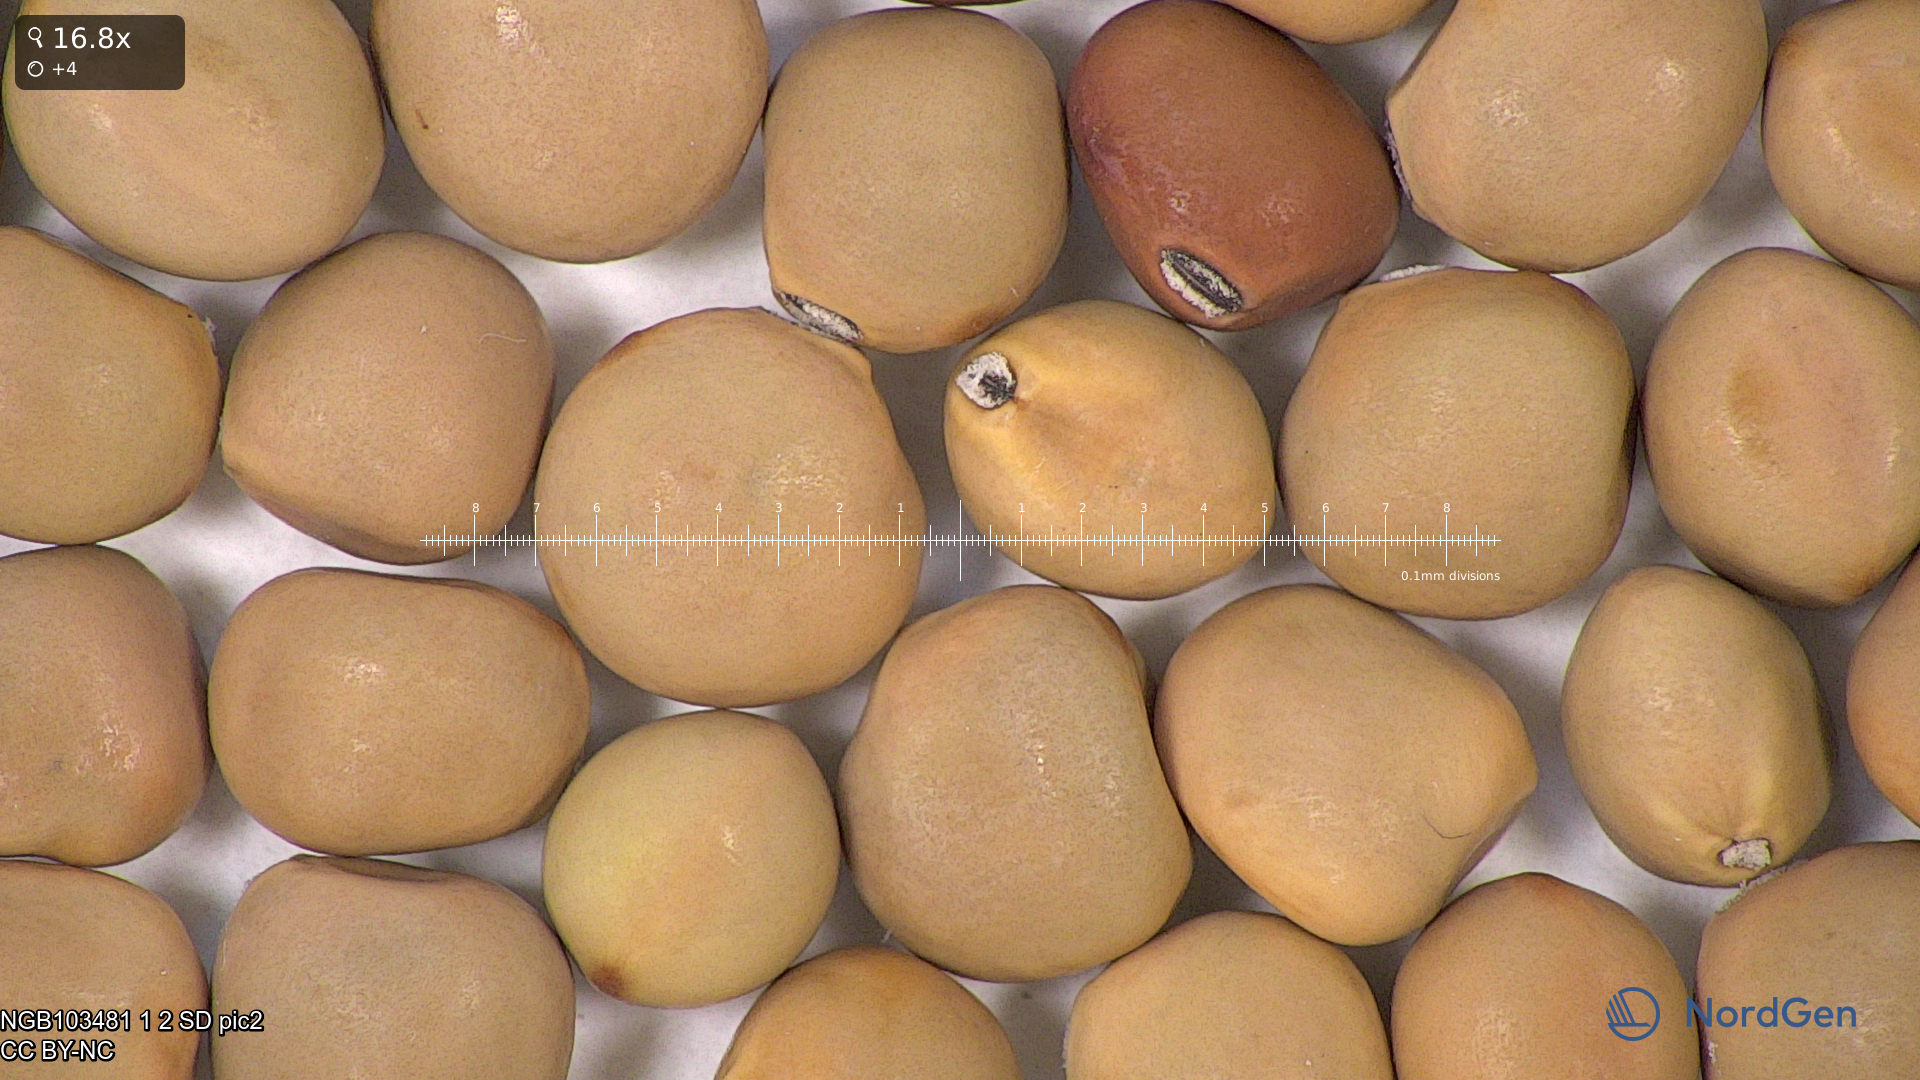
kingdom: Plantae
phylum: Tracheophyta
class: Magnoliopsida
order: Fabales
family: Fabaceae
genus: Lathyrus
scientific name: Lathyrus oleraceus
